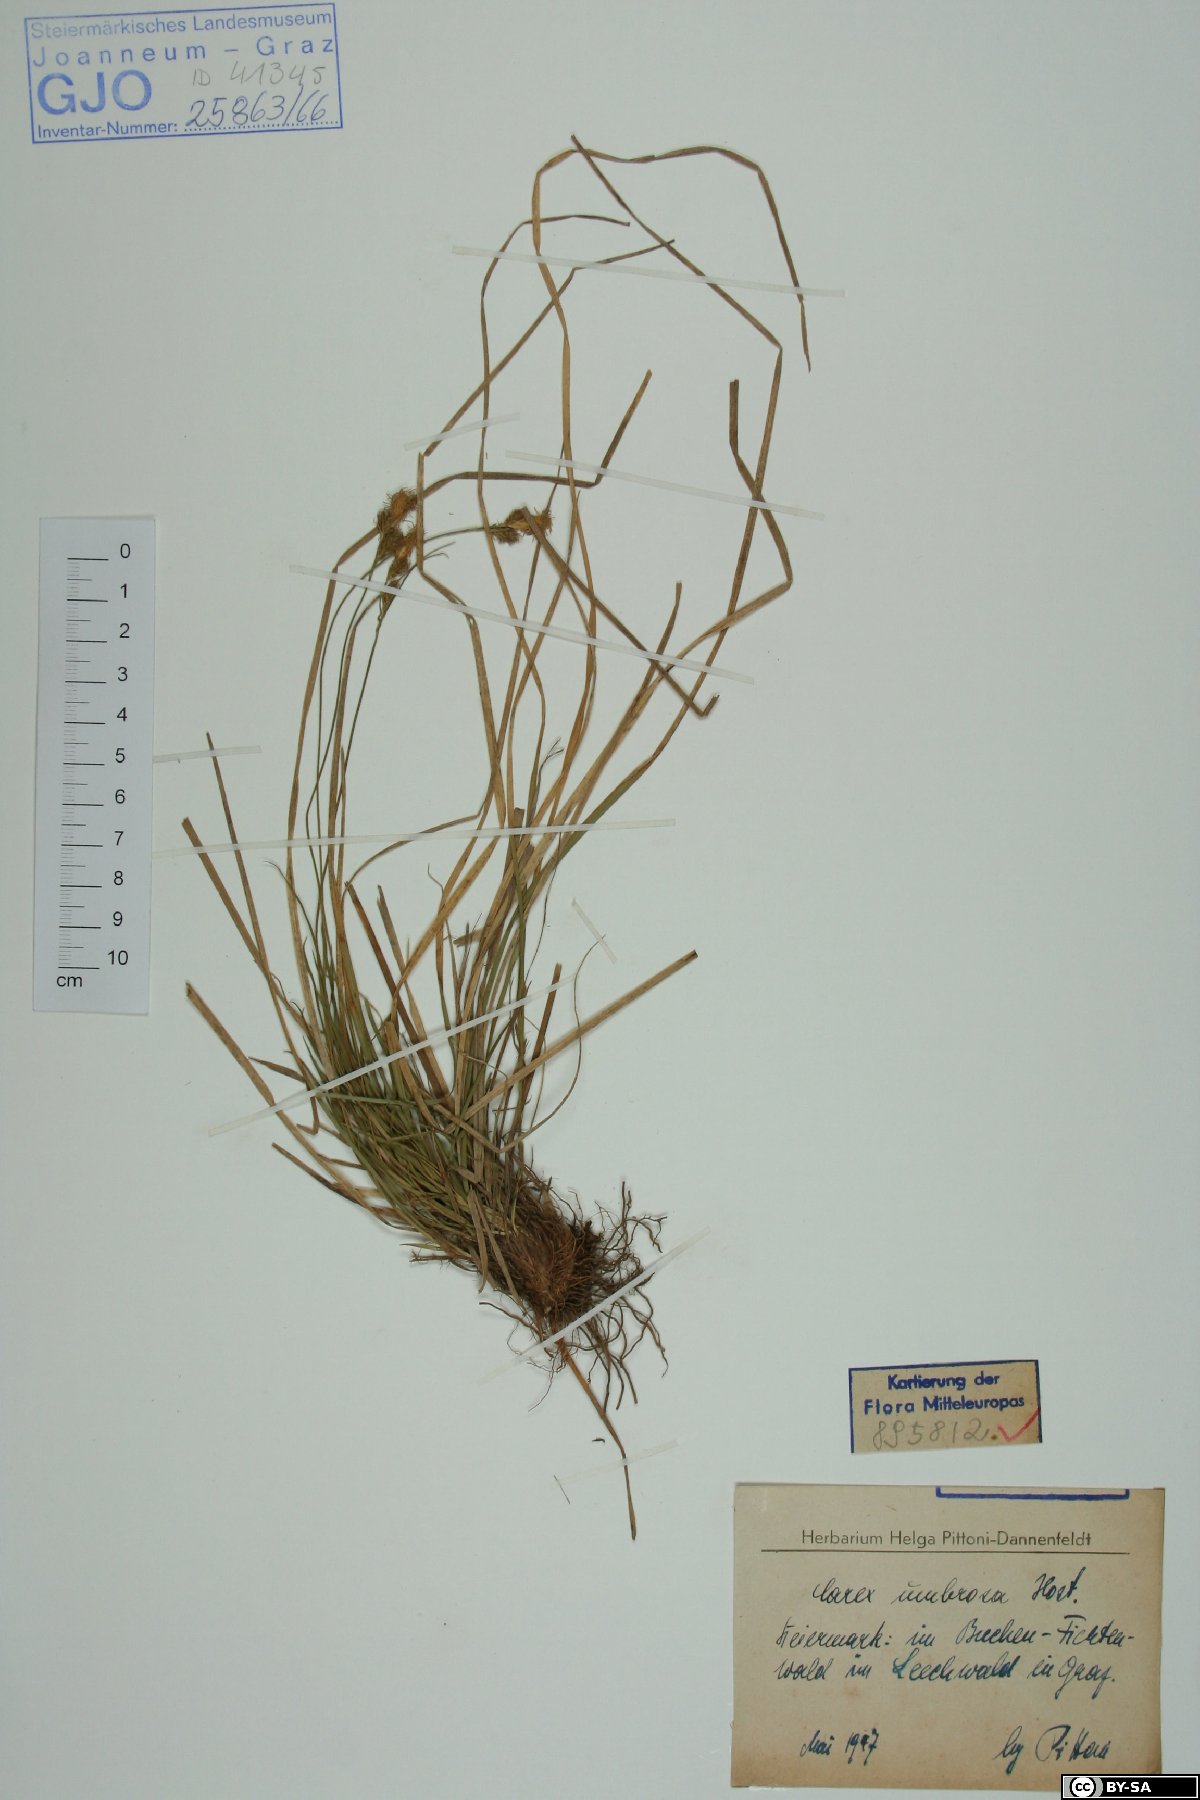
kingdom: Plantae
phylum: Tracheophyta
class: Liliopsida
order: Poales
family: Cyperaceae
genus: Carex
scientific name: Carex umbrosa
